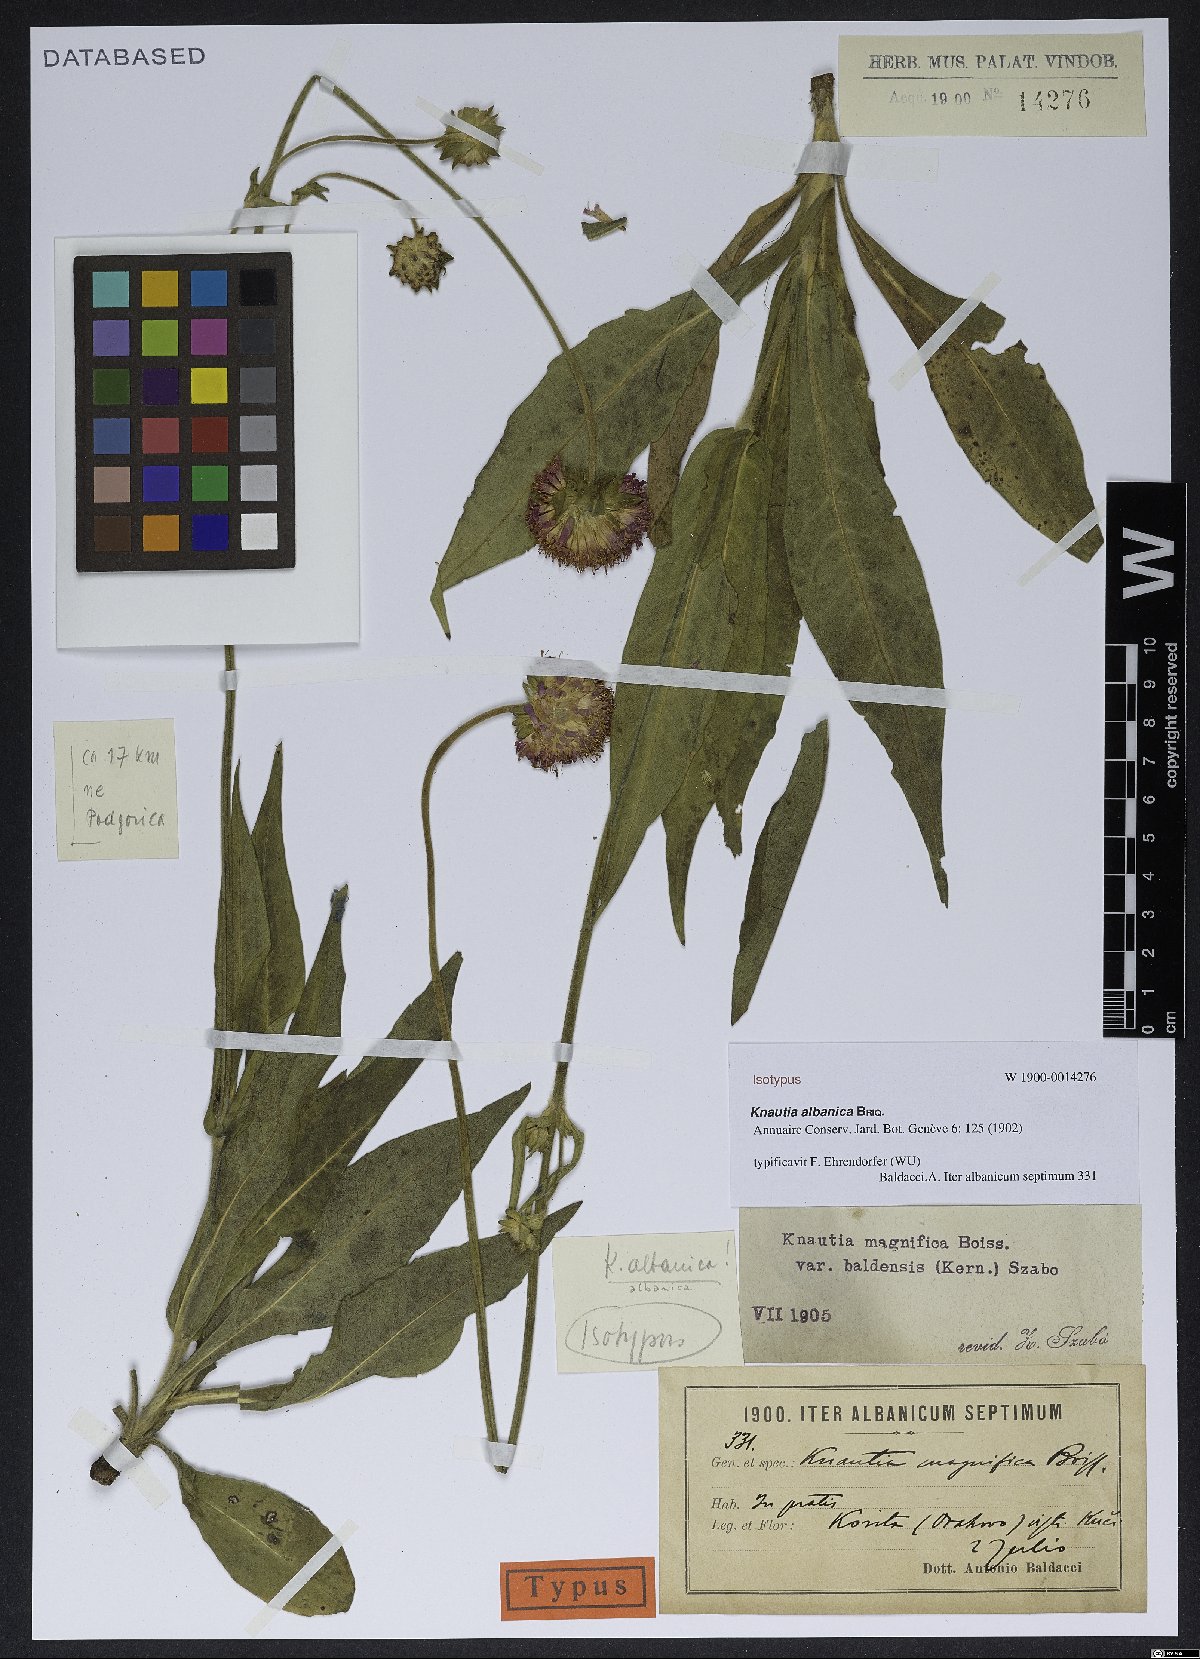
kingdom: Plantae
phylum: Tracheophyta
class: Magnoliopsida
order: Dipsacales
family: Caprifoliaceae
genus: Knautia
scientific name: Knautia albanica
